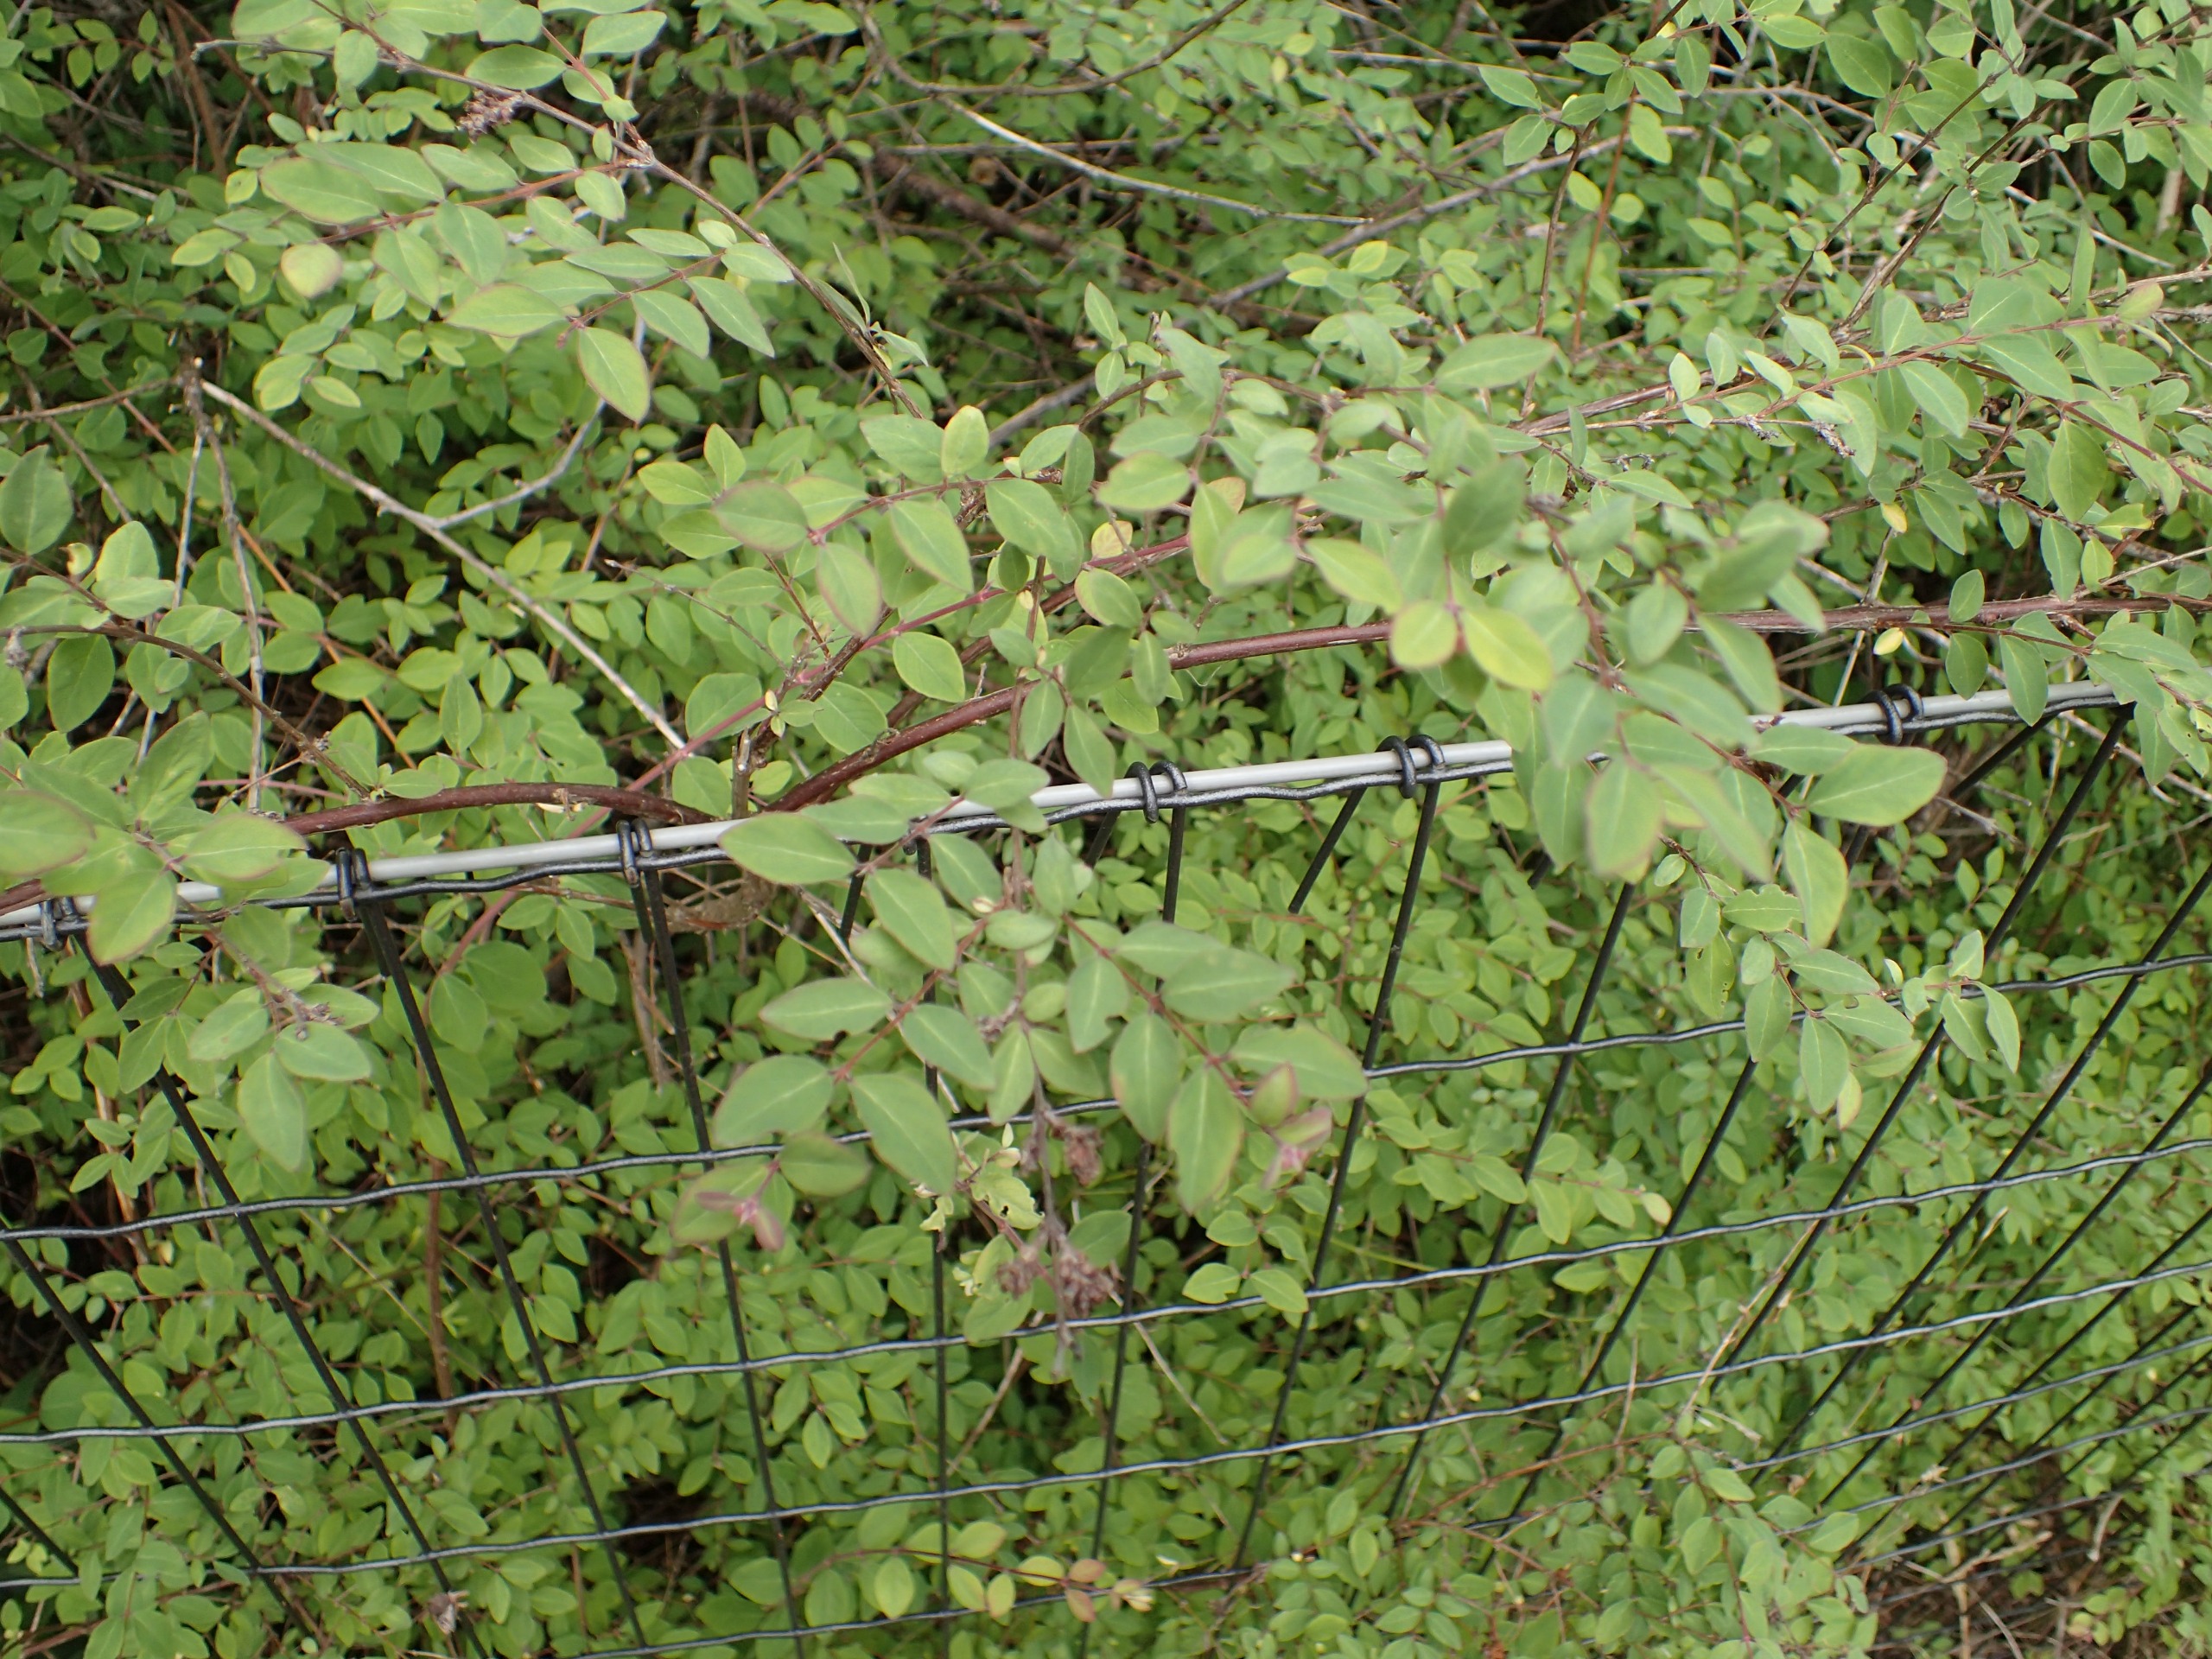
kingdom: Plantae
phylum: Tracheophyta
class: Magnoliopsida
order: Dipsacales
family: Caprifoliaceae
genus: Symphoricarpos
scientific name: Symphoricarpos chenaultii
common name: Rød snebær
